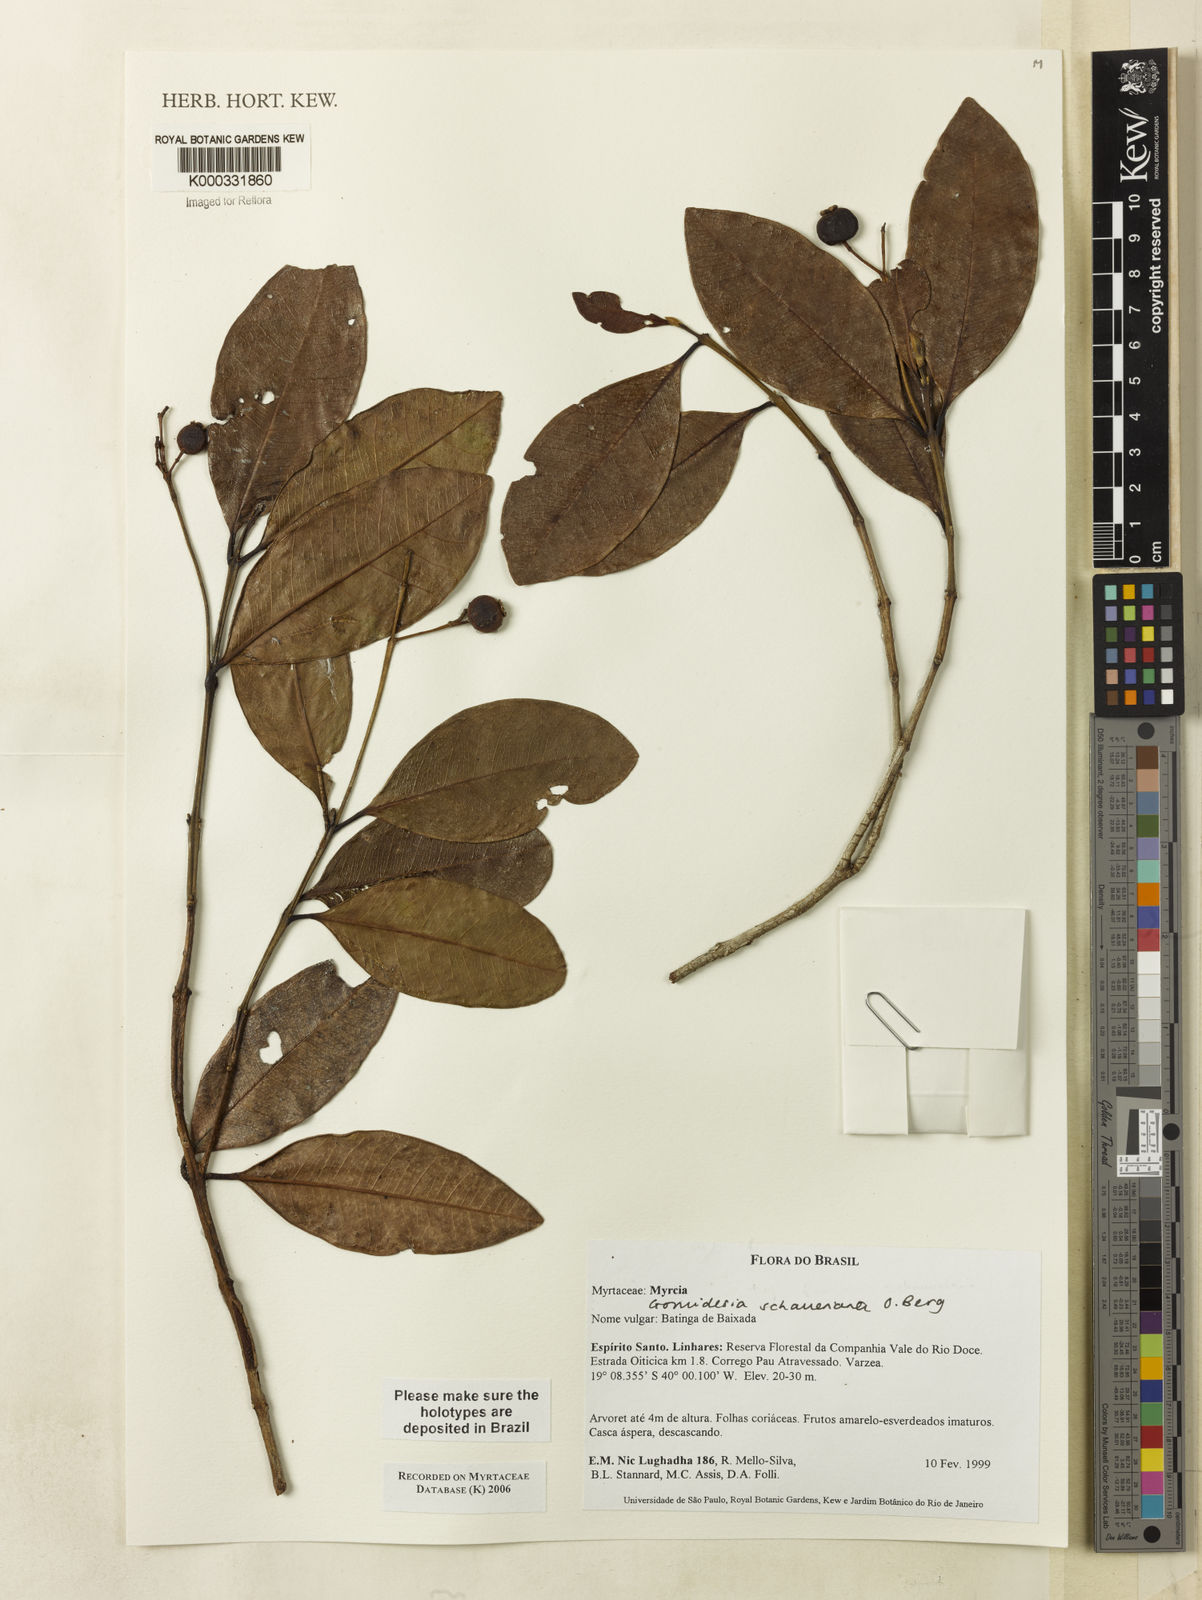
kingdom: Plantae
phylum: Tracheophyta
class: Magnoliopsida
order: Myrtales
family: Myrtaceae
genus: Myrcia
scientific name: Myrcia freyreissiana
